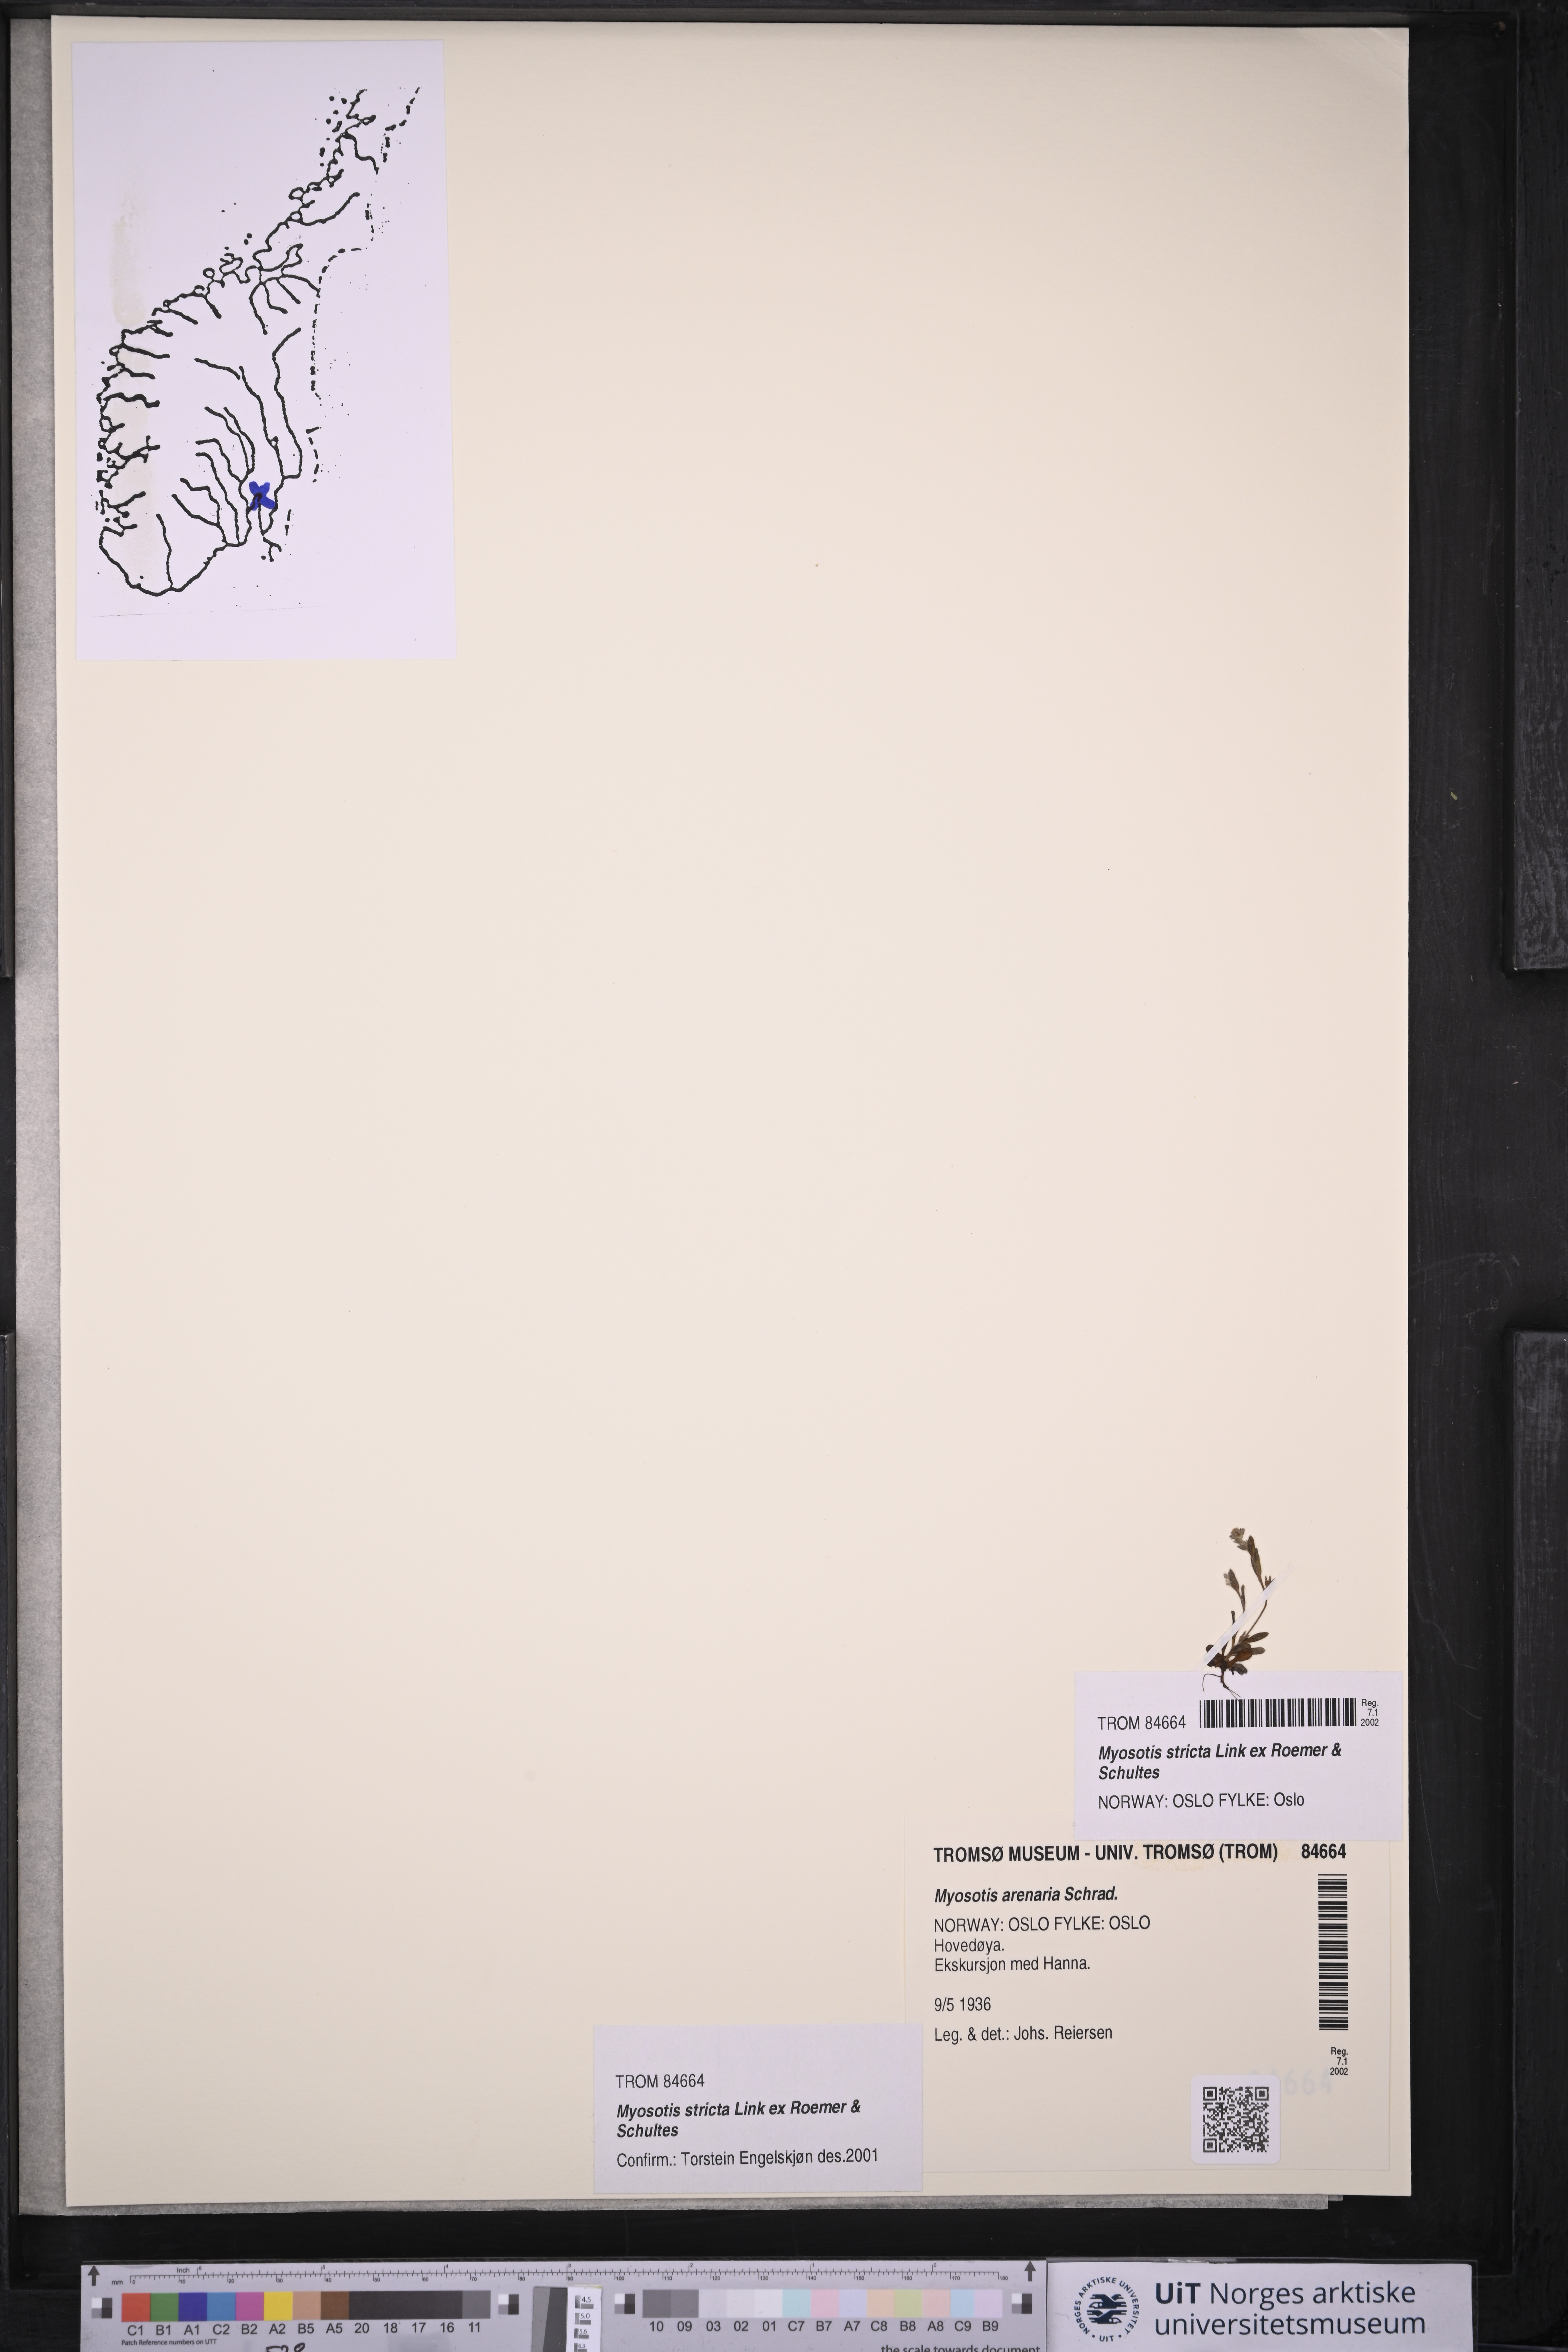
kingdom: Plantae
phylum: Tracheophyta
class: Magnoliopsida
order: Boraginales
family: Boraginaceae
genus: Myosotis
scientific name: Myosotis stricta
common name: Strict forget-me-not
